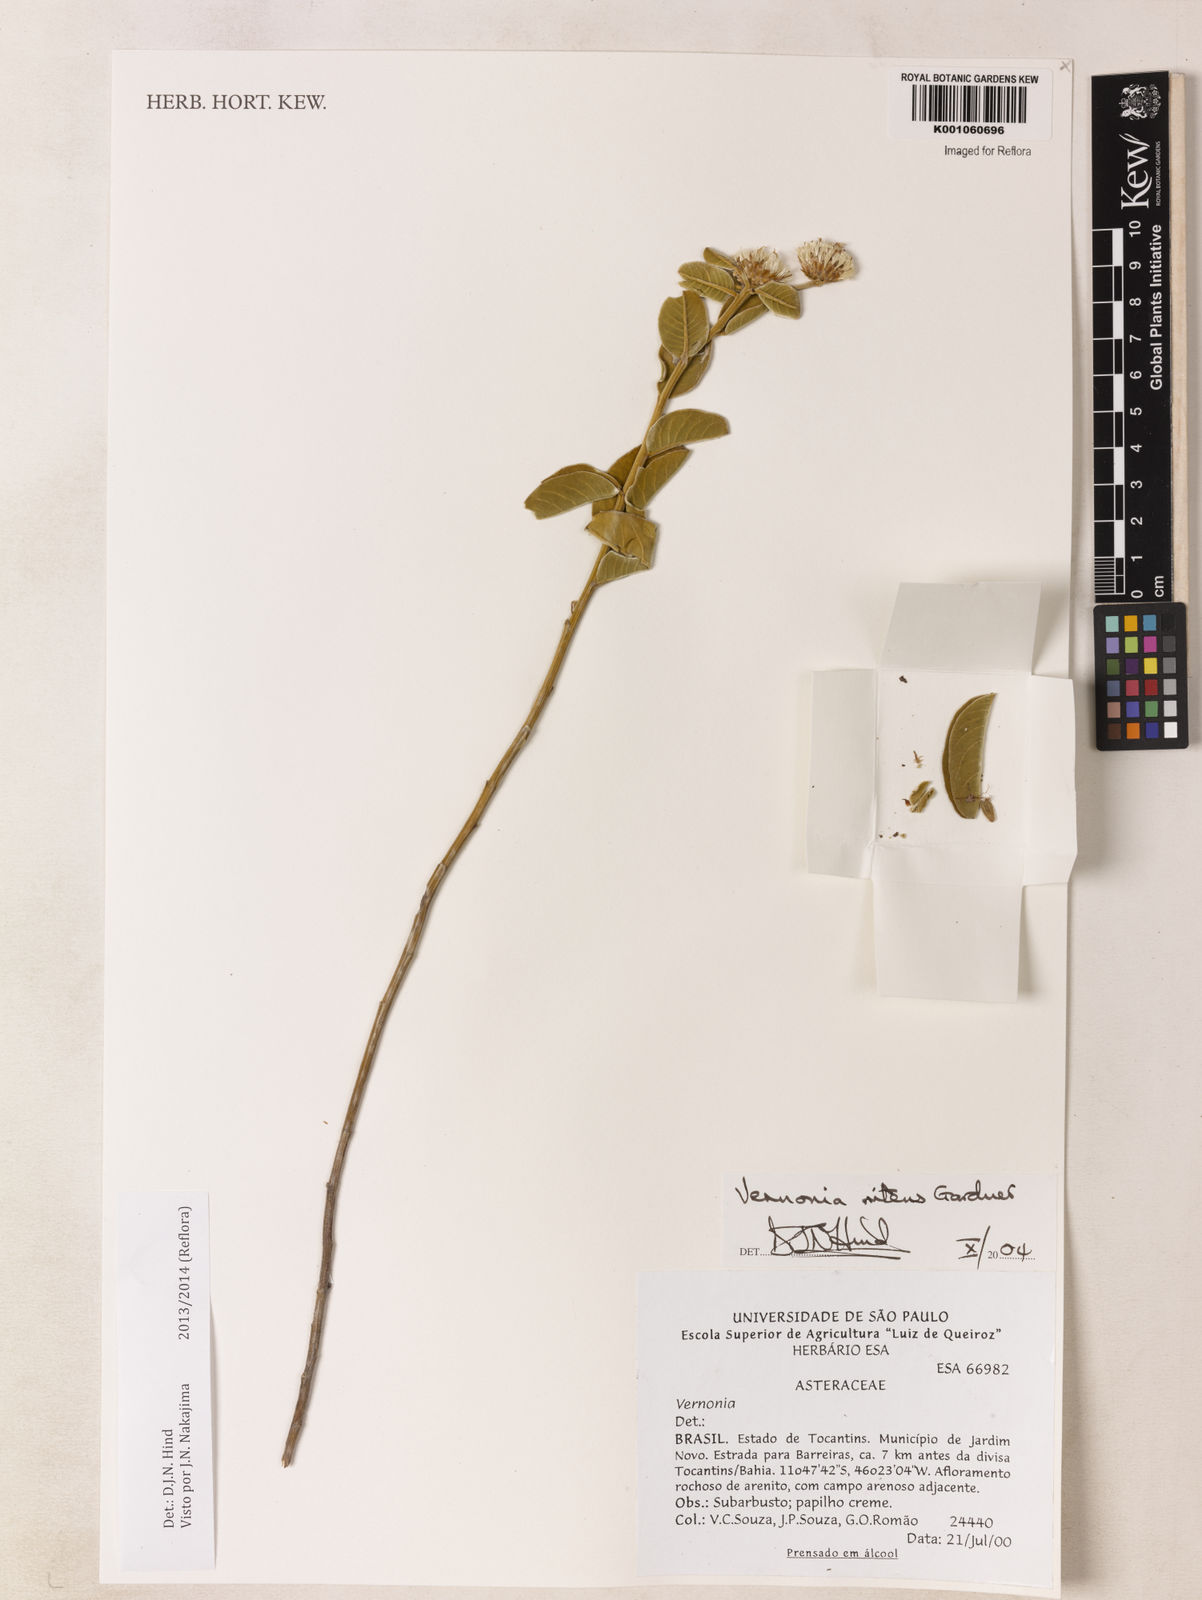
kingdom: Plantae
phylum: Tracheophyta
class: Magnoliopsida
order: Asterales
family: Asteraceae
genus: Lepidaploa
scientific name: Lepidaploa nitens
